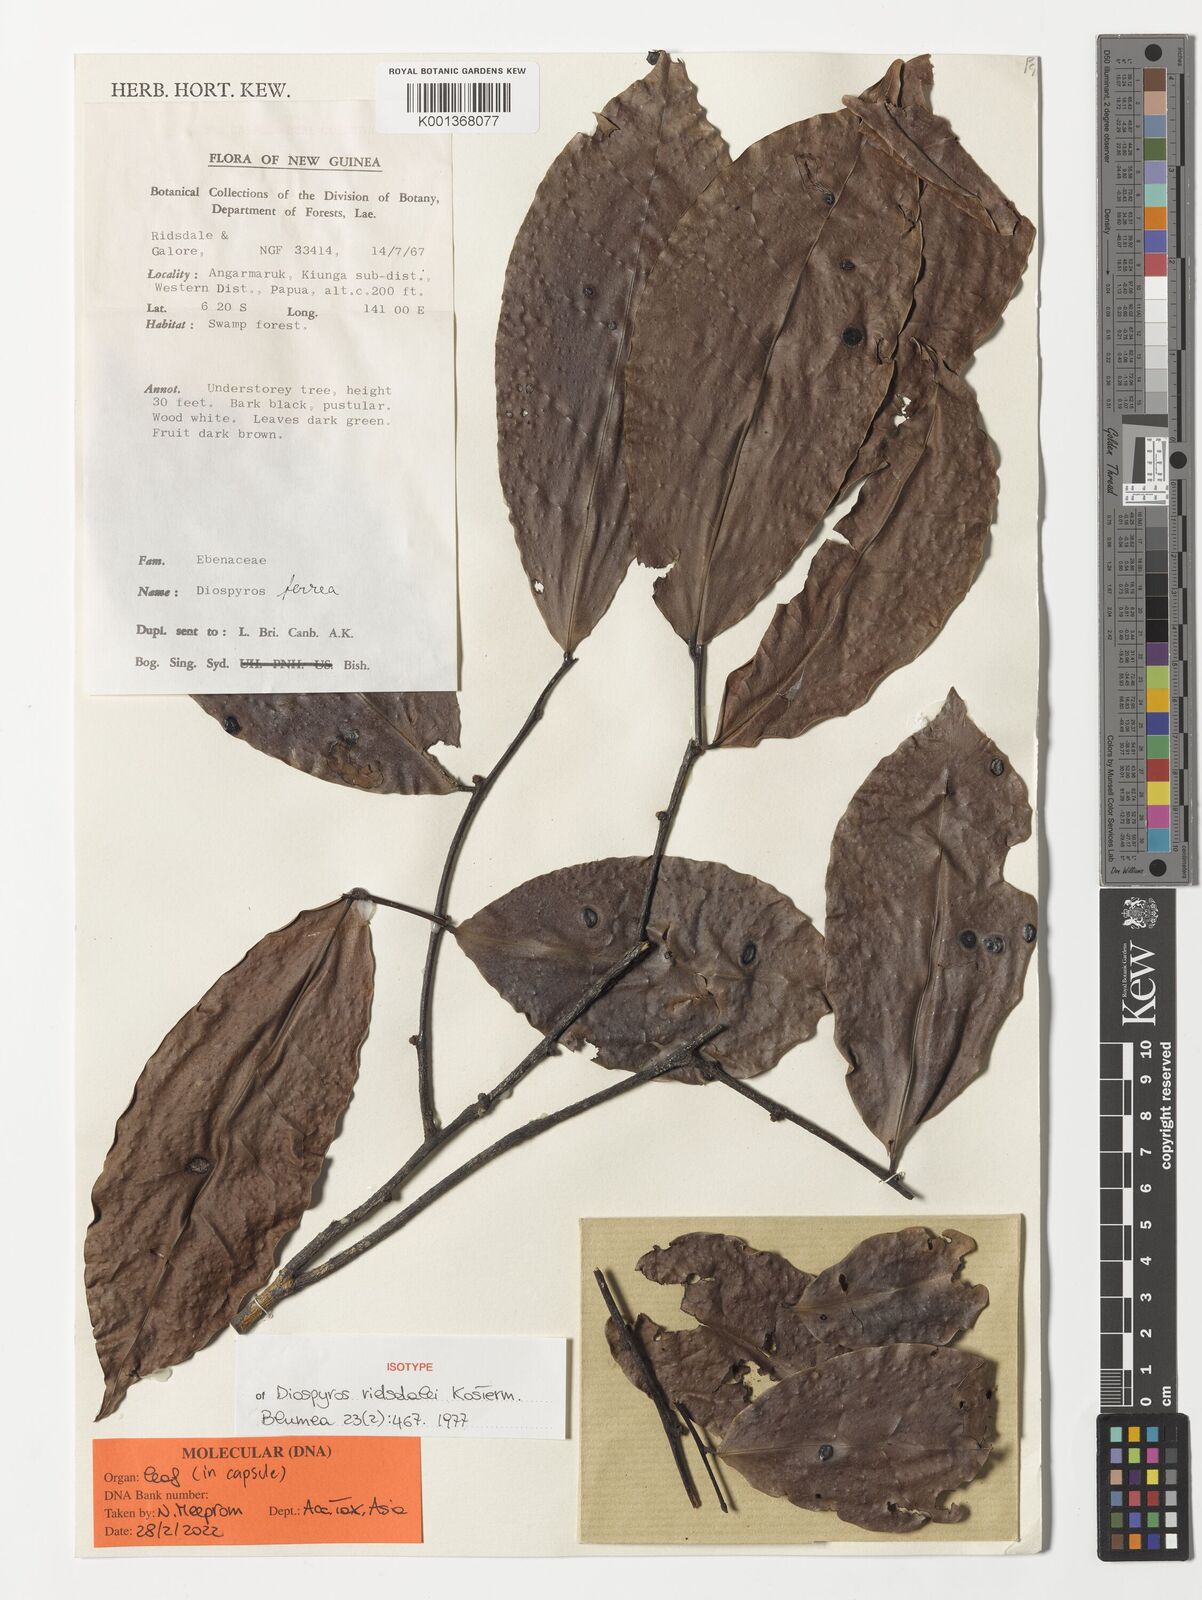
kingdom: Plantae
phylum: Tracheophyta
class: Magnoliopsida
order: Ericales
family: Ebenaceae
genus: Diospyros
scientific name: Diospyros ridsdalei
